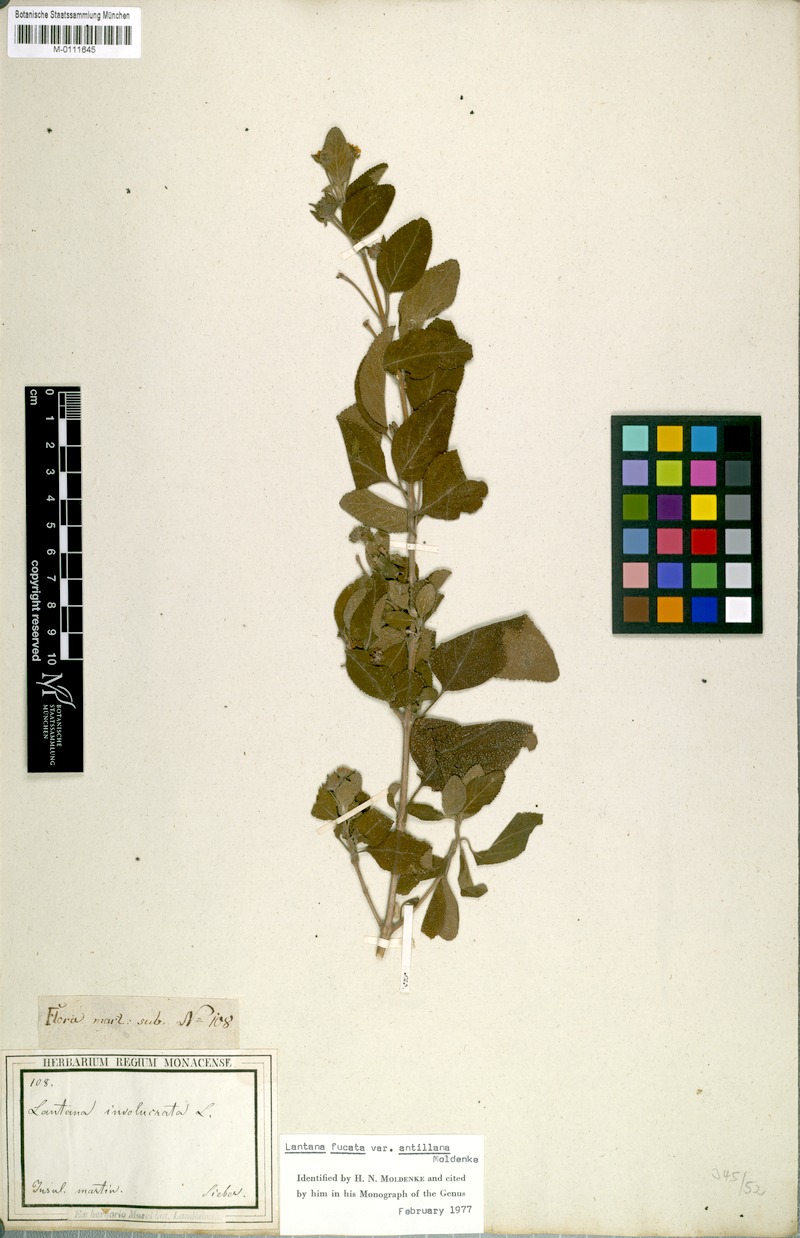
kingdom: Plantae
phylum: Tracheophyta
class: Magnoliopsida
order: Lamiales
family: Verbenaceae
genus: Lantana
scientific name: Lantana fucata
